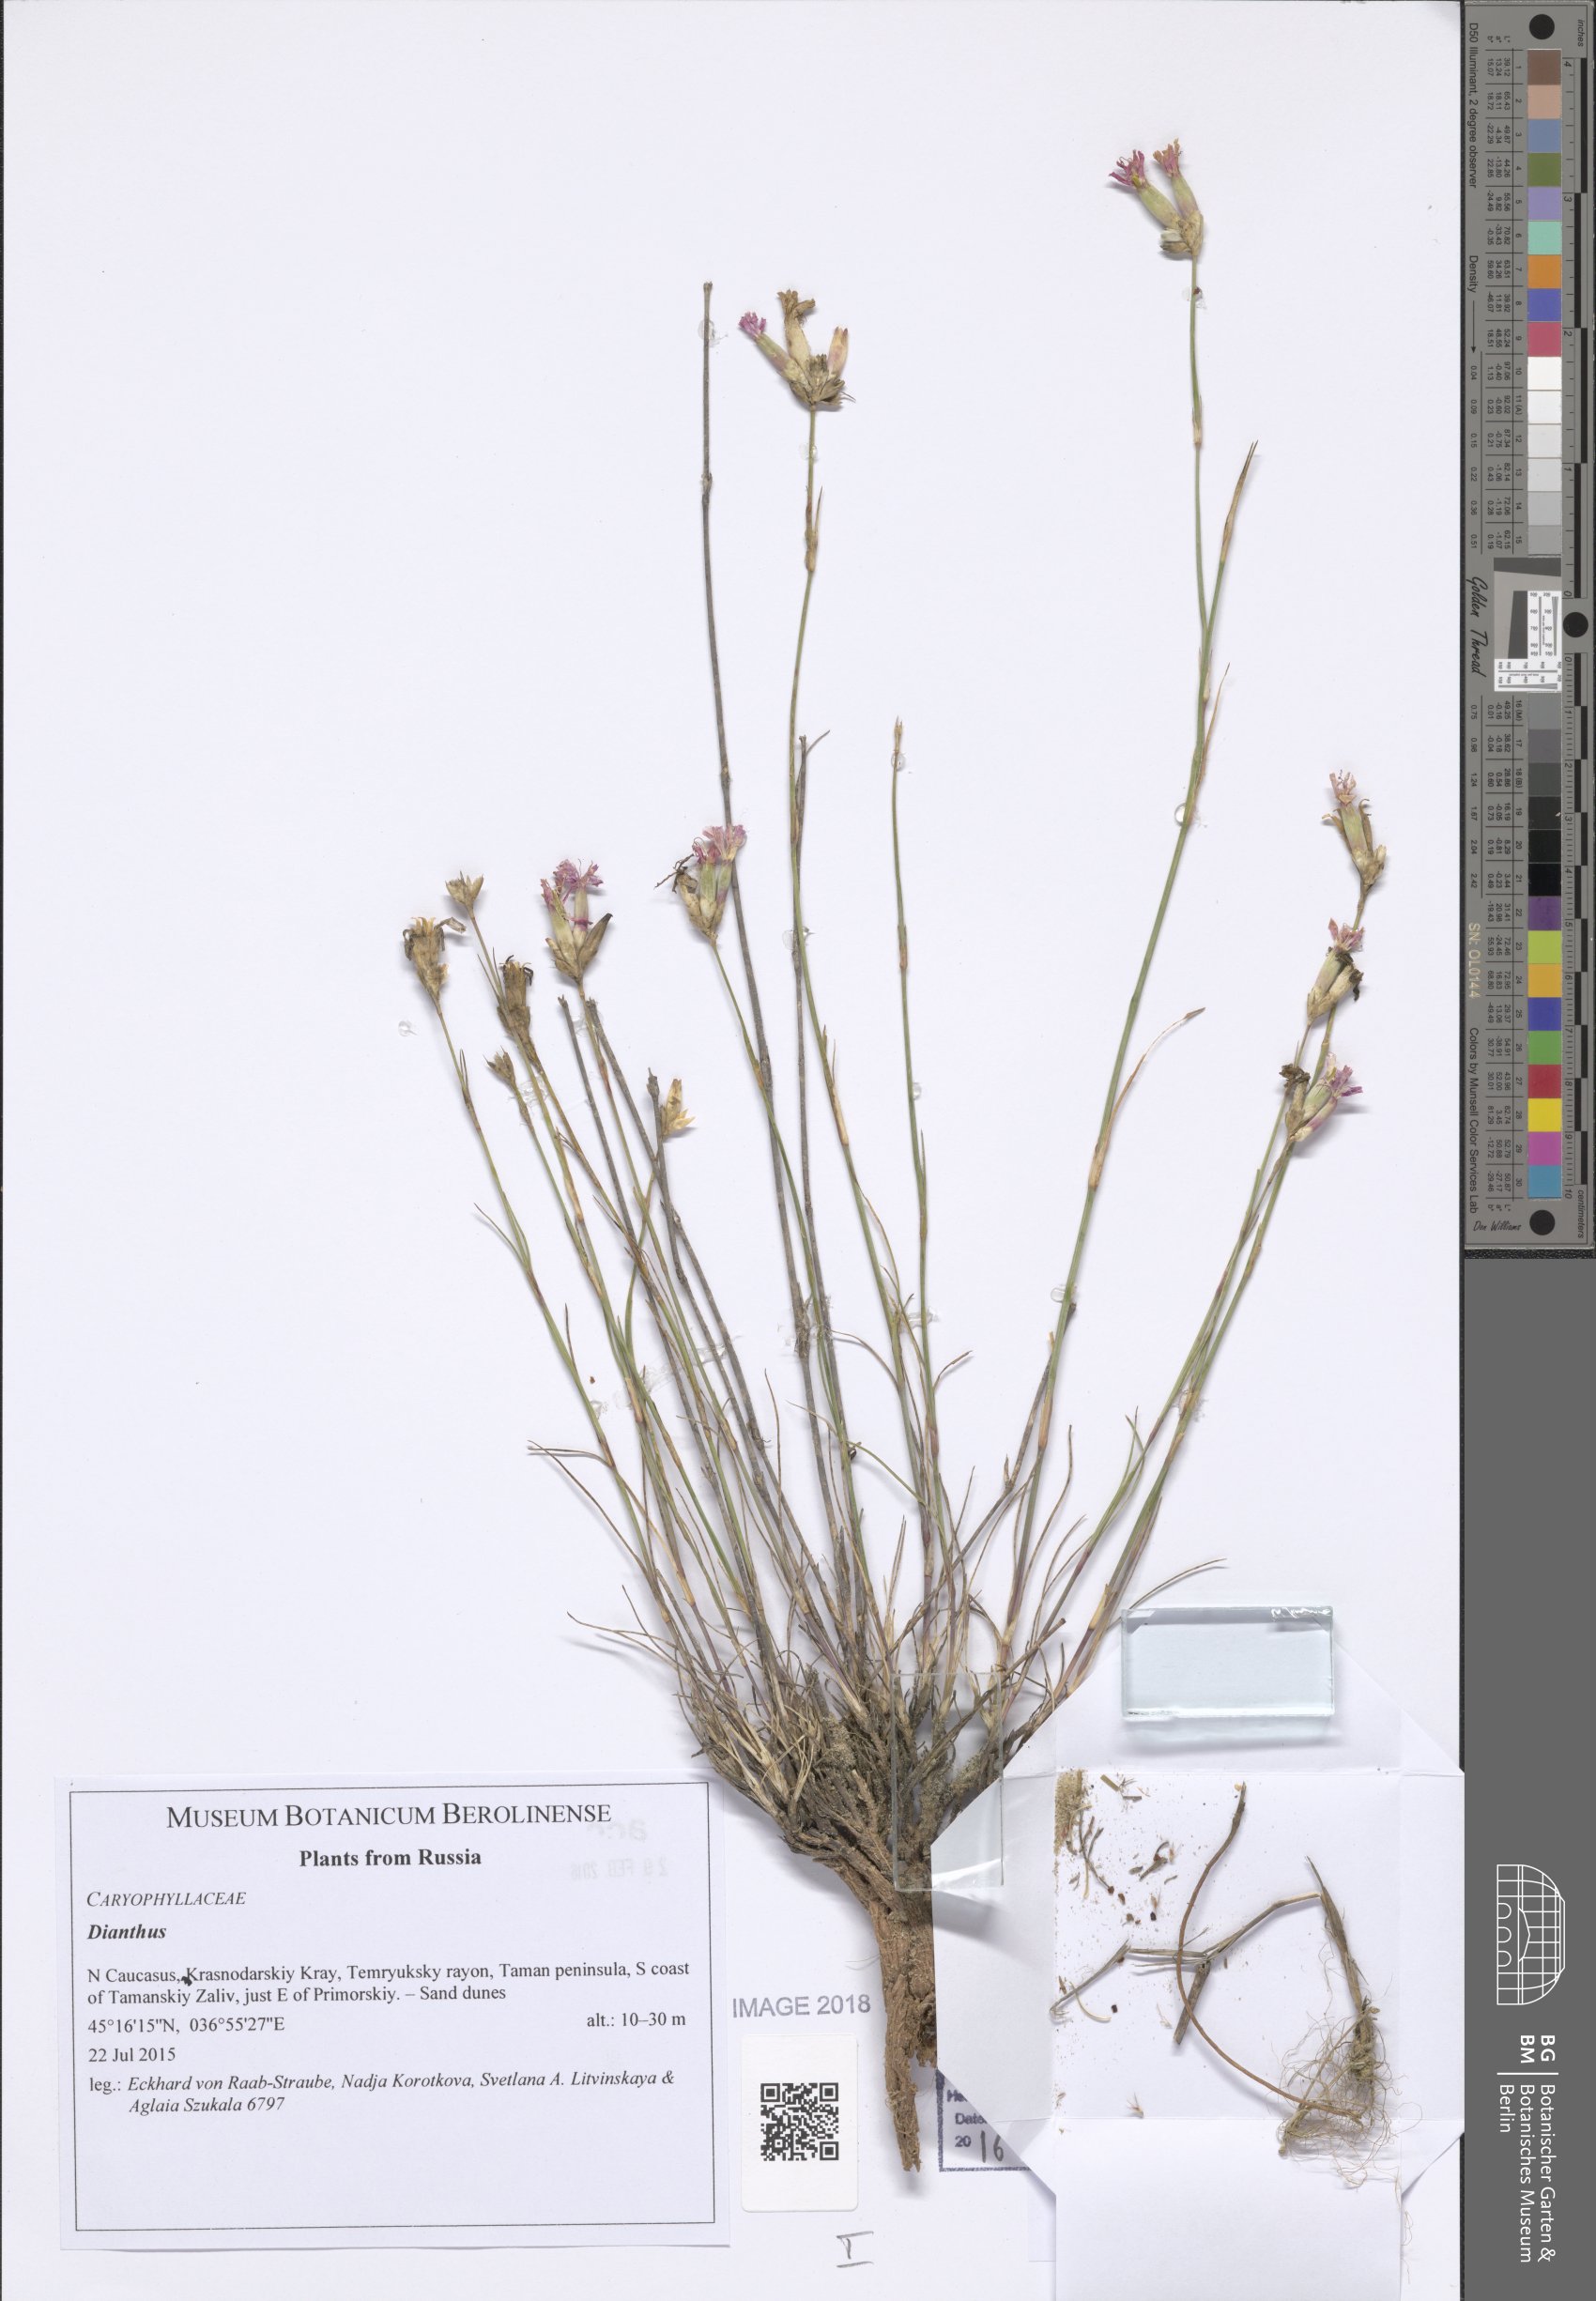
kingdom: Plantae
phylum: Tracheophyta
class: Magnoliopsida
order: Caryophyllales
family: Caryophyllaceae
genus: Dianthus
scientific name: Dianthus
